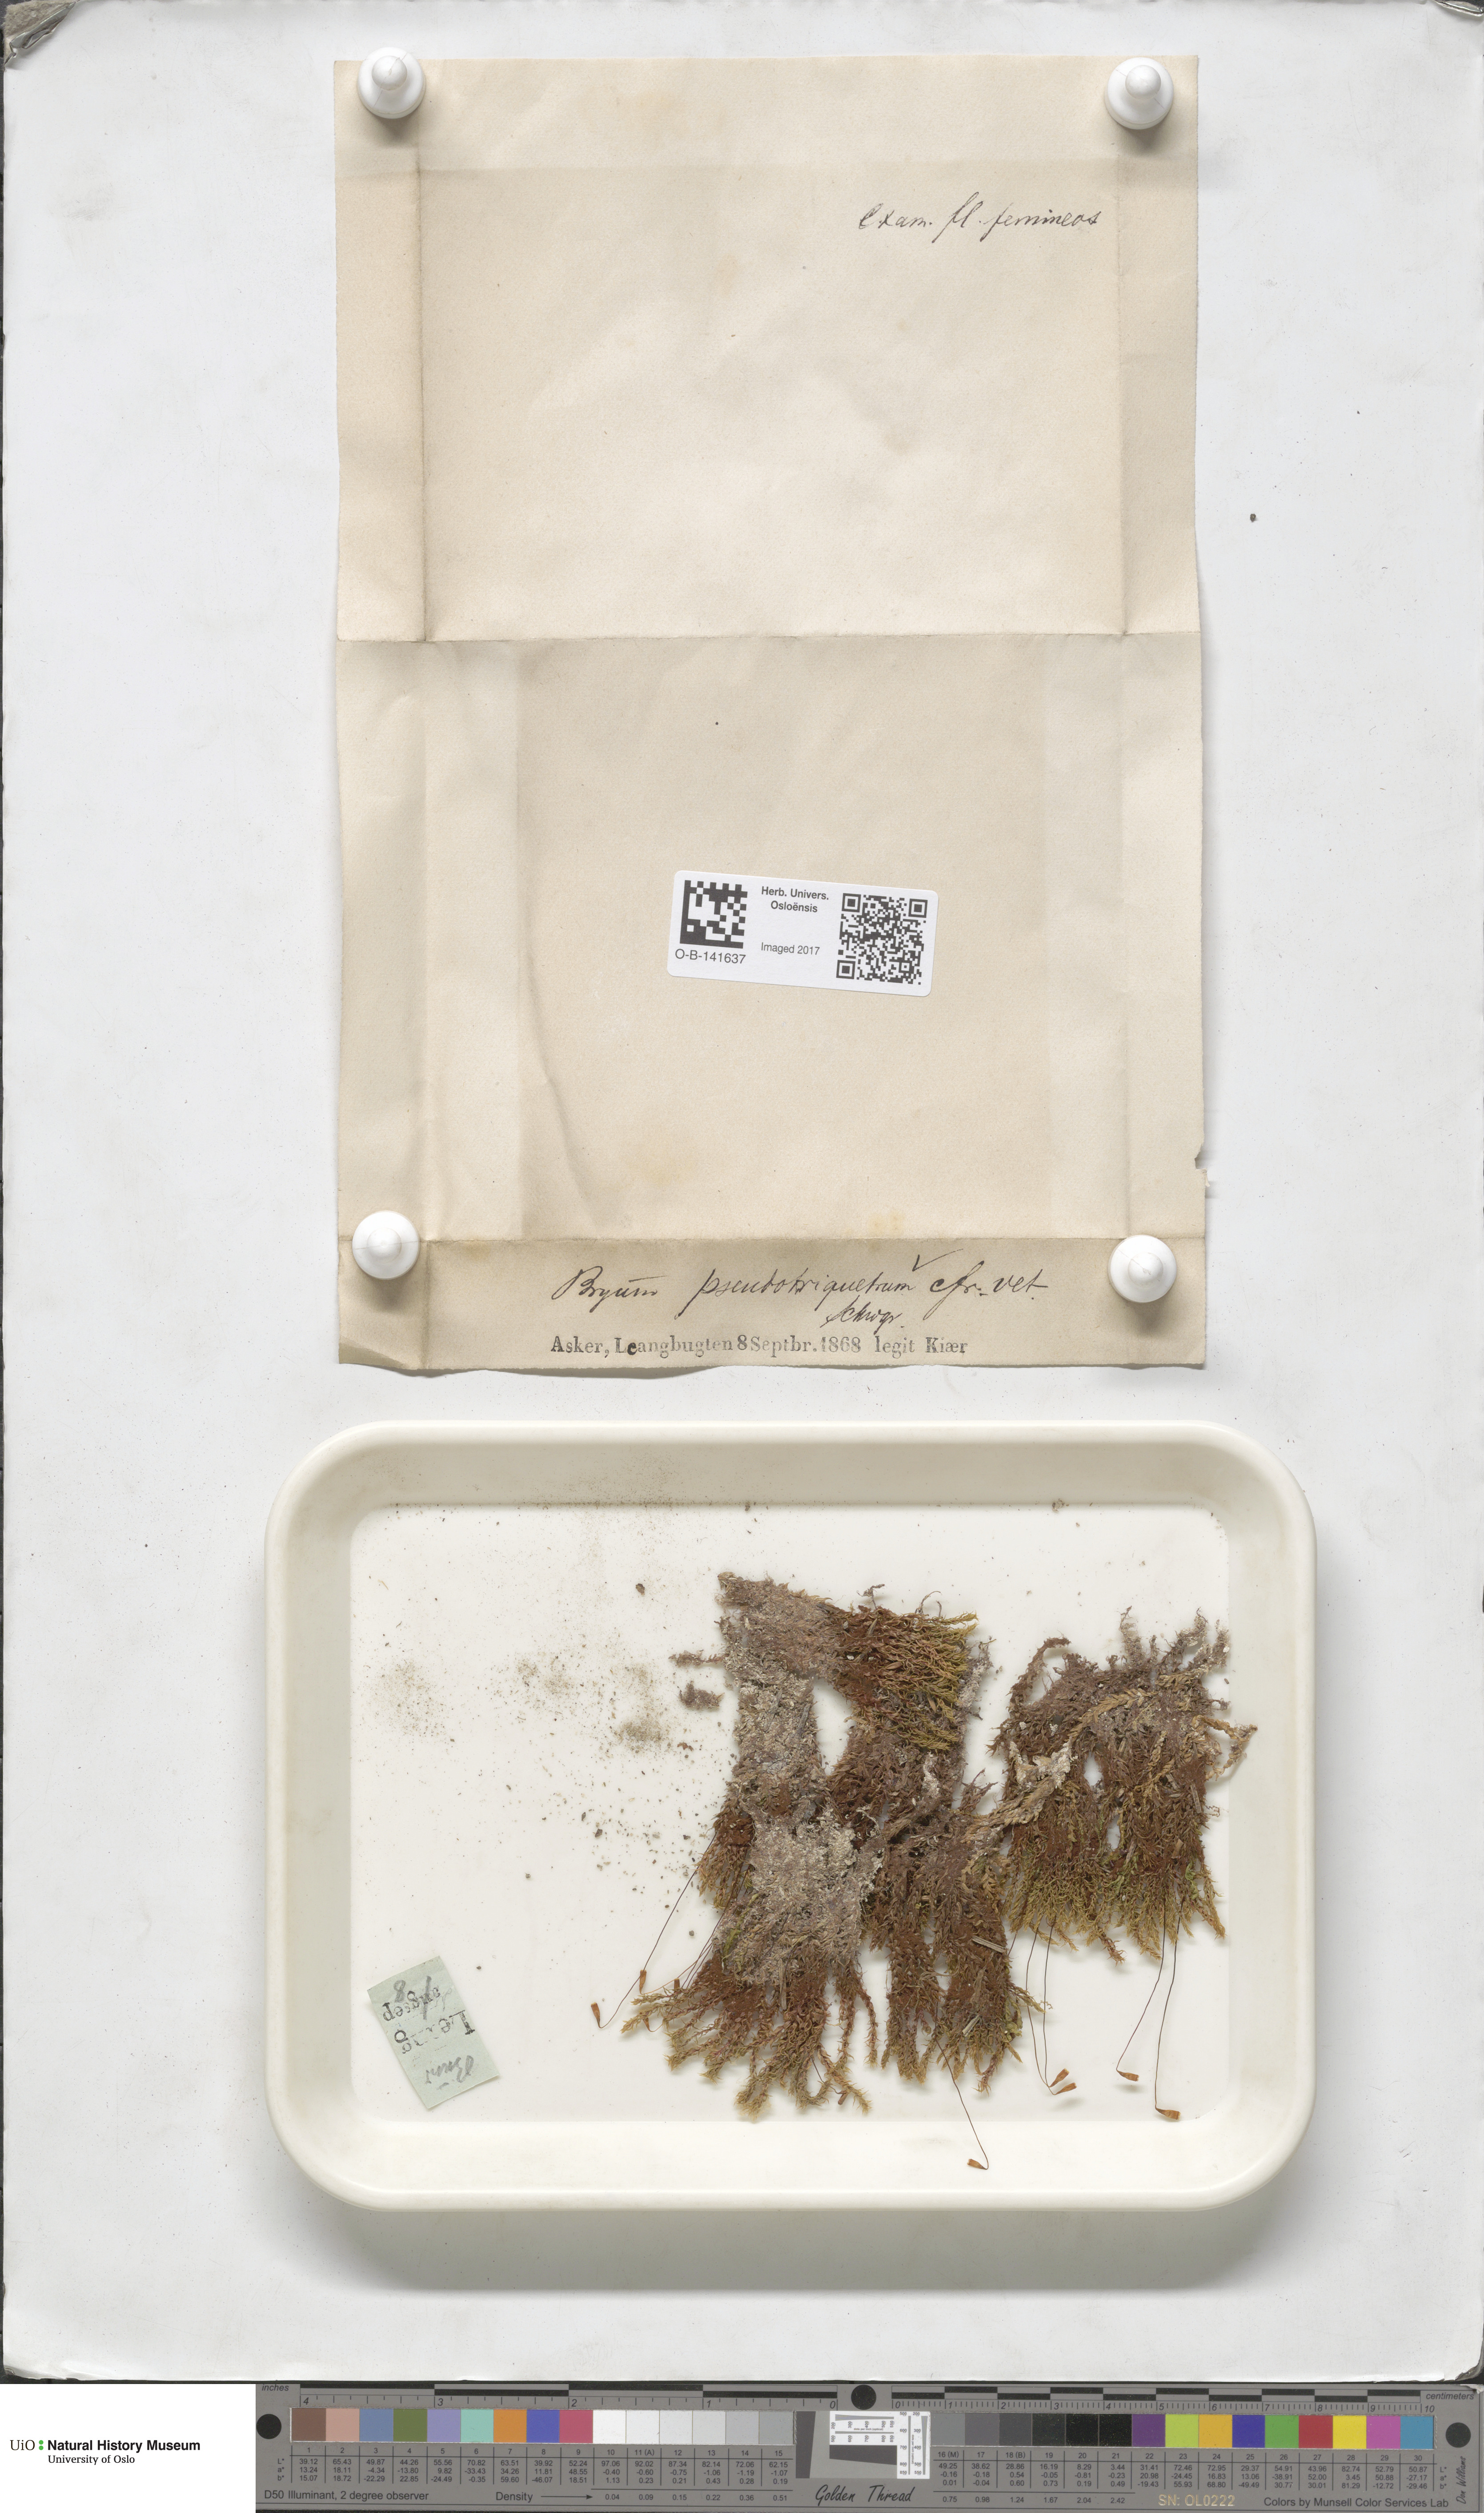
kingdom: Plantae
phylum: Bryophyta
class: Bryopsida
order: Bryales
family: Bryaceae
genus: Ptychostomum
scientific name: Ptychostomum pseudotriquetrum
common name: Long-leaved thread moss
